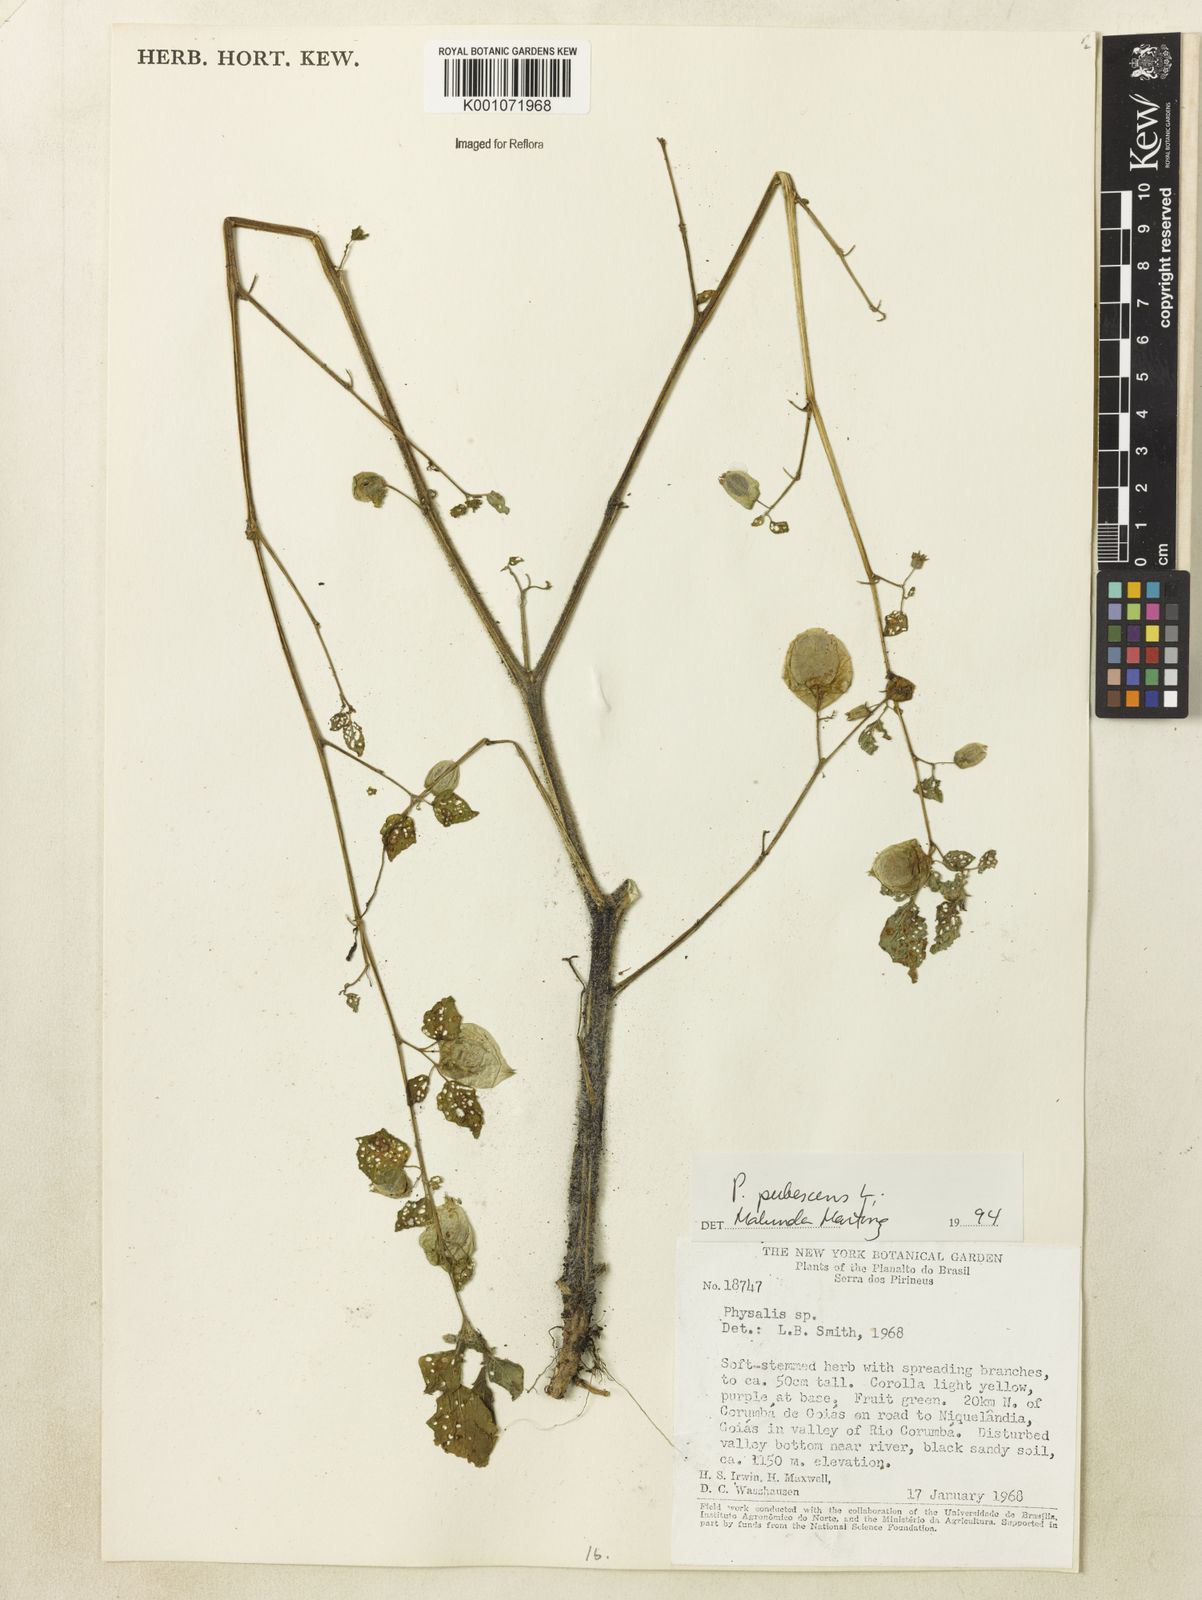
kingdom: Plantae
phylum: Tracheophyta
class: Magnoliopsida
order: Solanales
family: Solanaceae
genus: Physalis
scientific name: Physalis pubescens
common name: Downy ground-cherry
